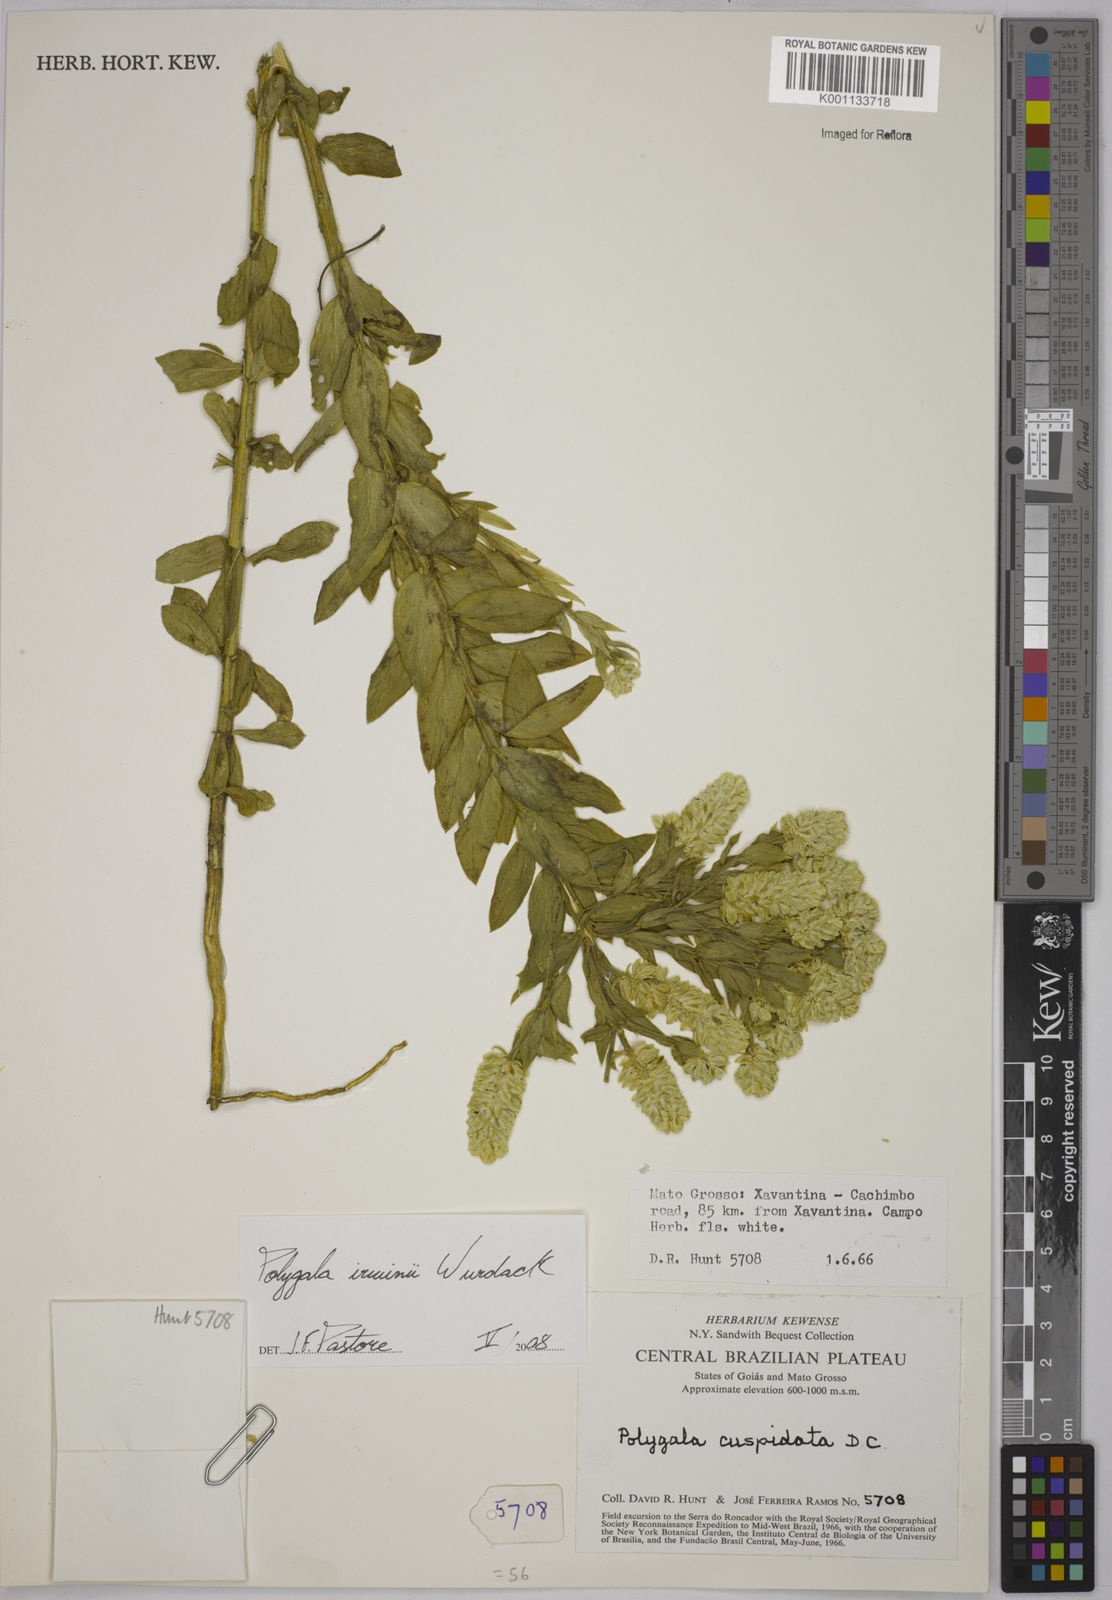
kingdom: Plantae
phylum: Tracheophyta
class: Magnoliopsida
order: Fabales
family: Polygalaceae
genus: Polygala
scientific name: Polygala irwinii
